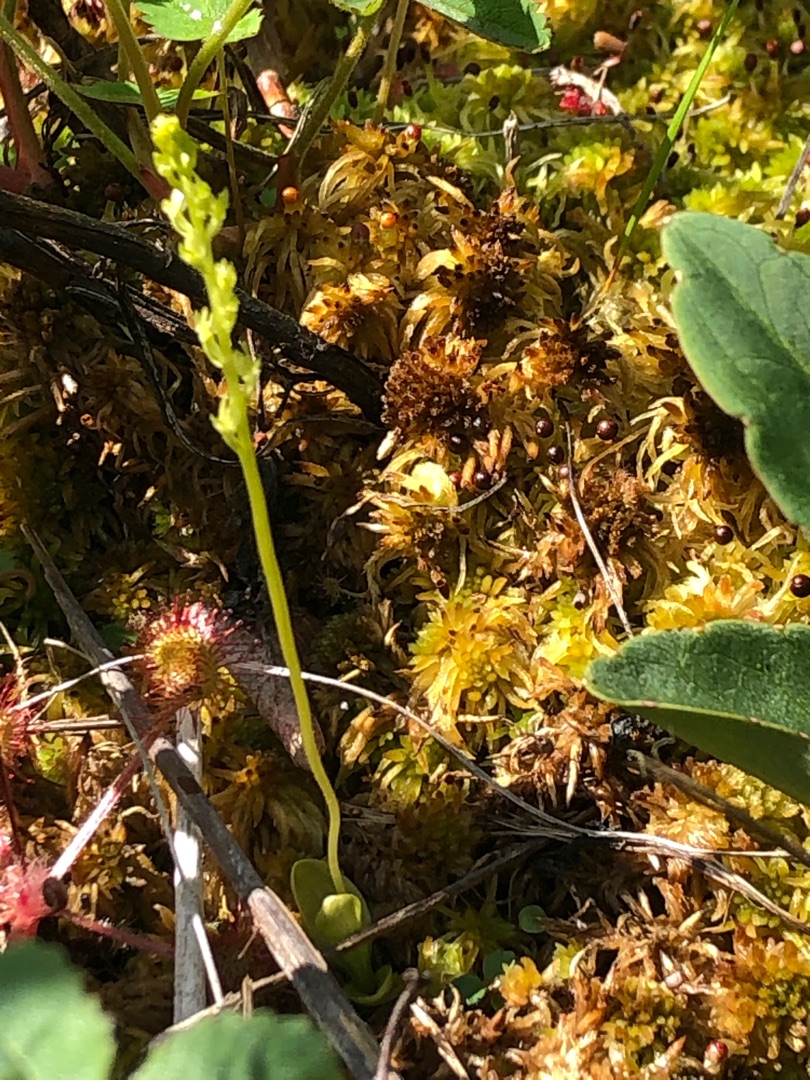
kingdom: Plantae
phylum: Tracheophyta
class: Liliopsida
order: Asparagales
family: Orchidaceae
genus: Hammarbya
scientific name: Hammarbya paludosa
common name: Hjertelæbe
